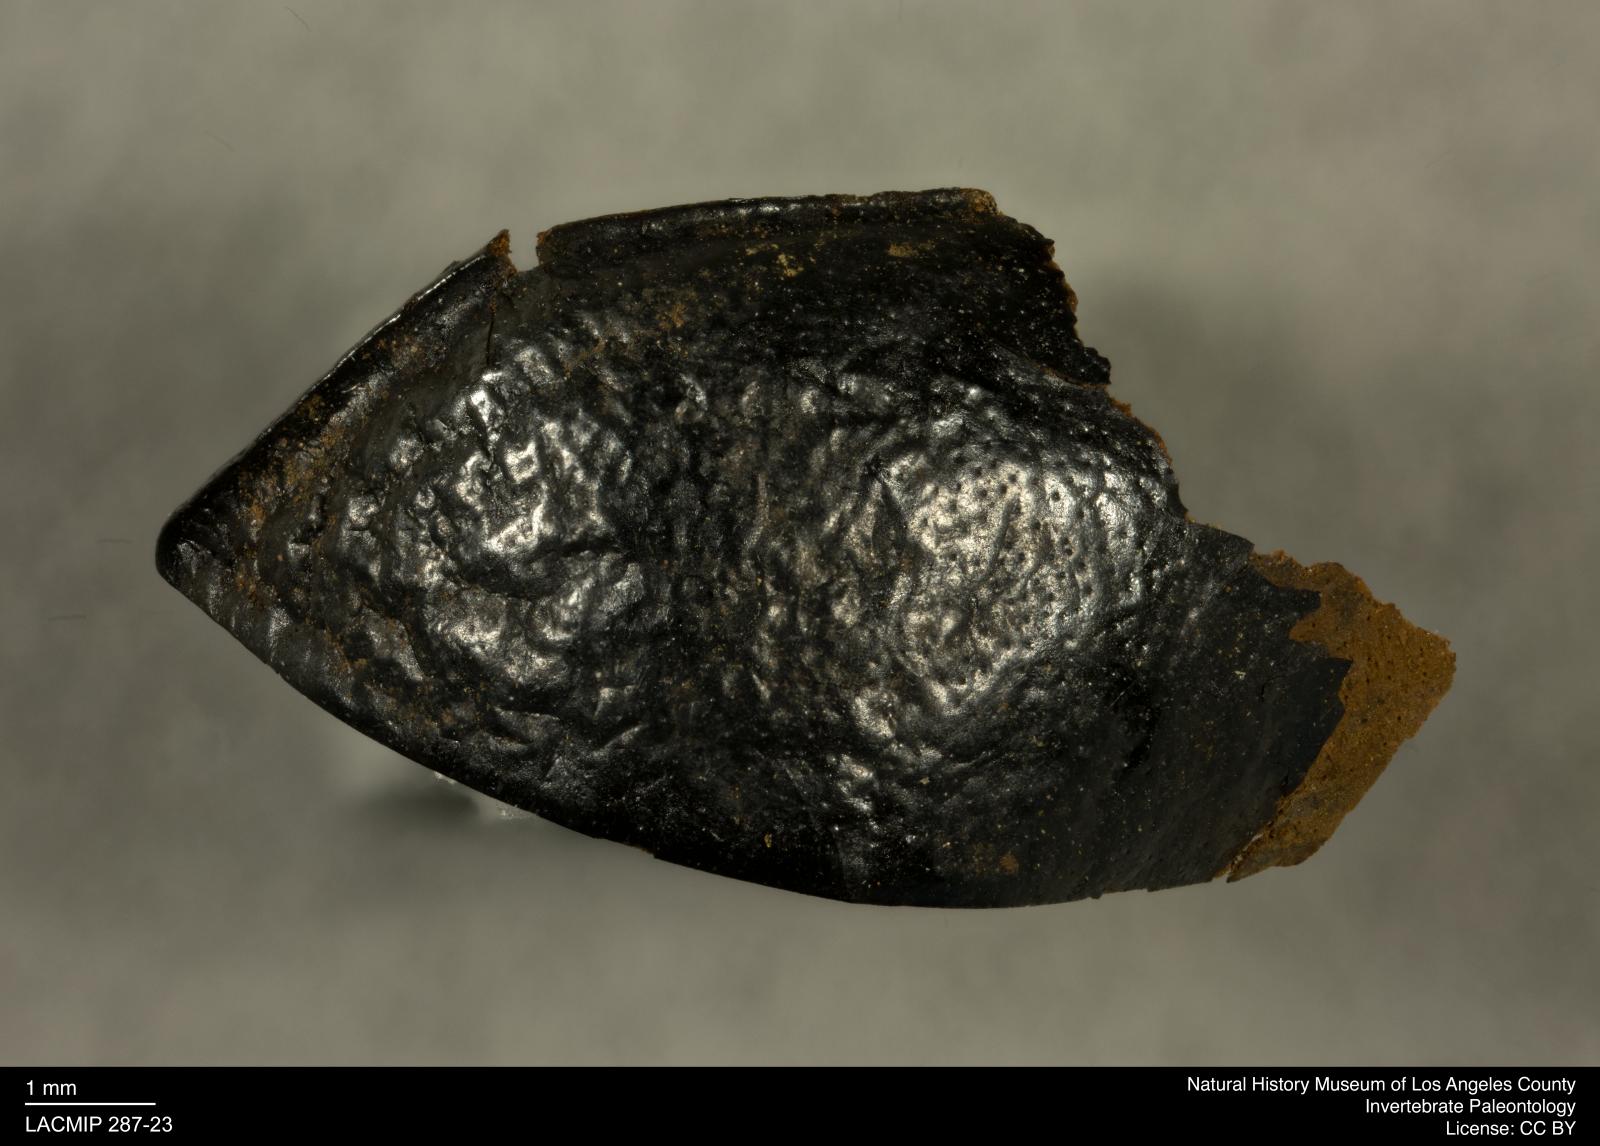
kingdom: Animalia
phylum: Arthropoda
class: Insecta
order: Coleoptera
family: Tenebrionidae
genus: Coniontis
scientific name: Coniontis abdominalis
